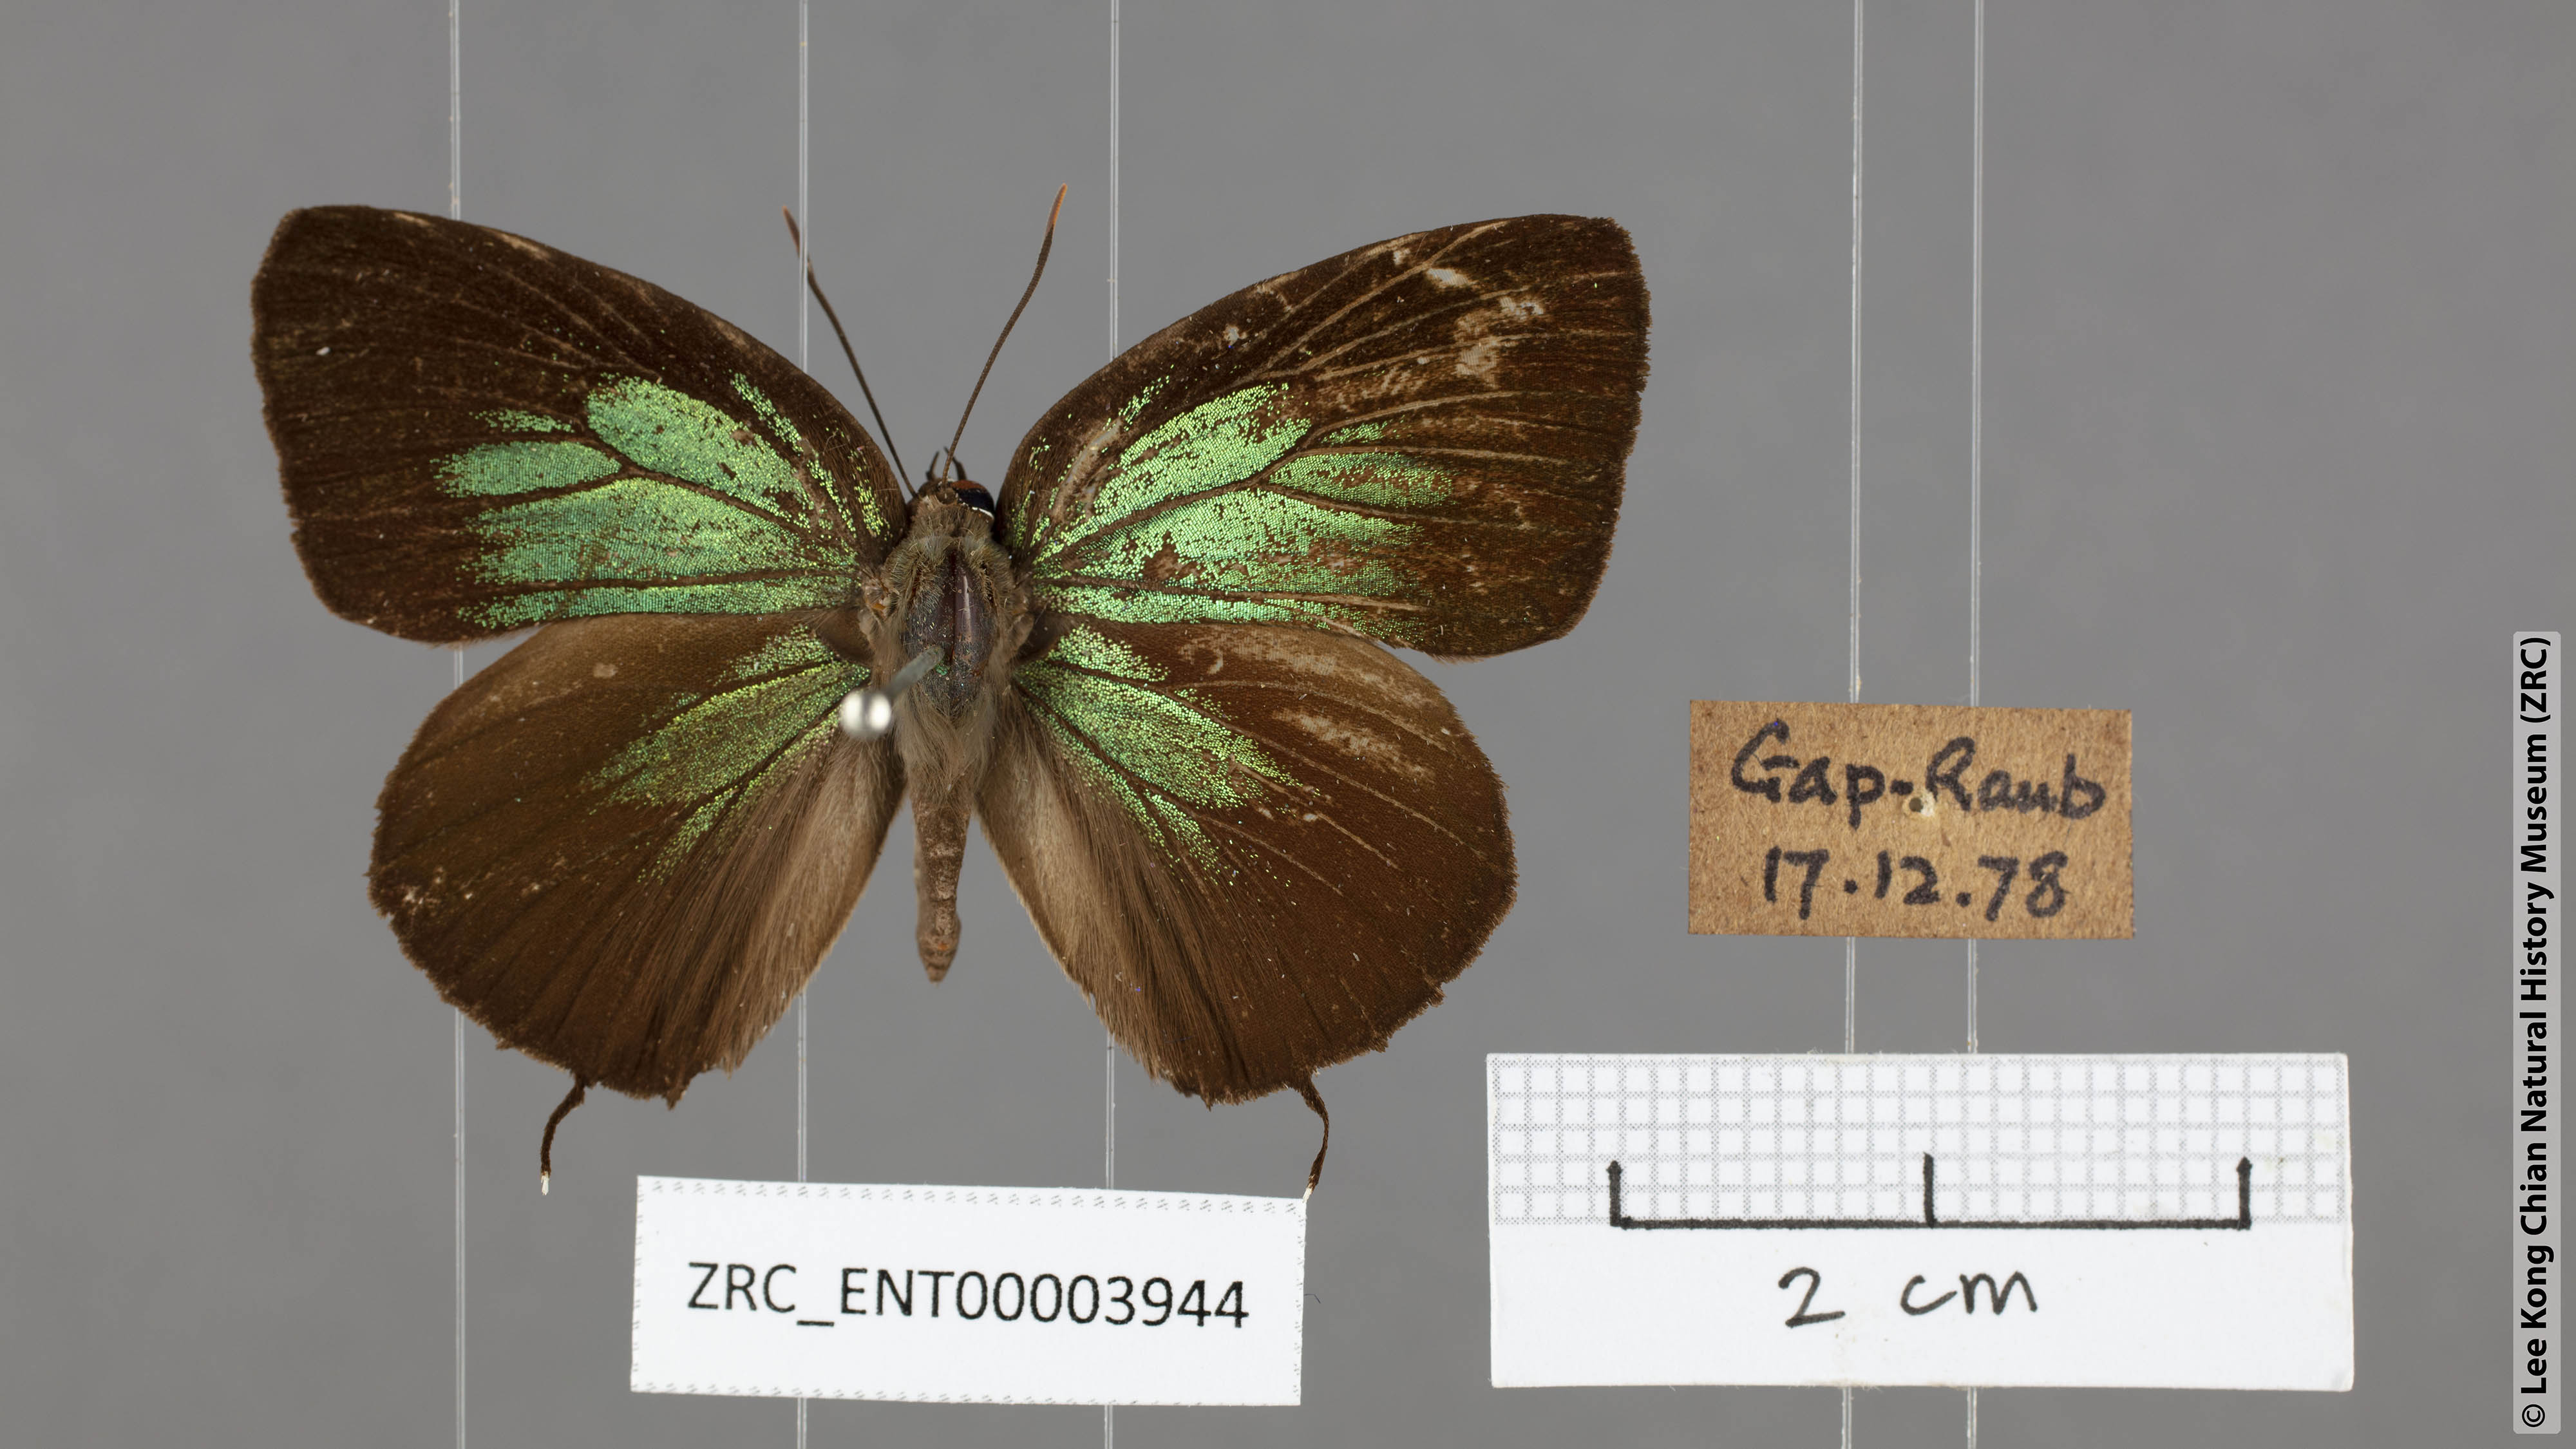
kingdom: Animalia
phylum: Arthropoda
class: Insecta
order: Lepidoptera
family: Lycaenidae
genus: Arhopala
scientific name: Arhopala horsfieldi
